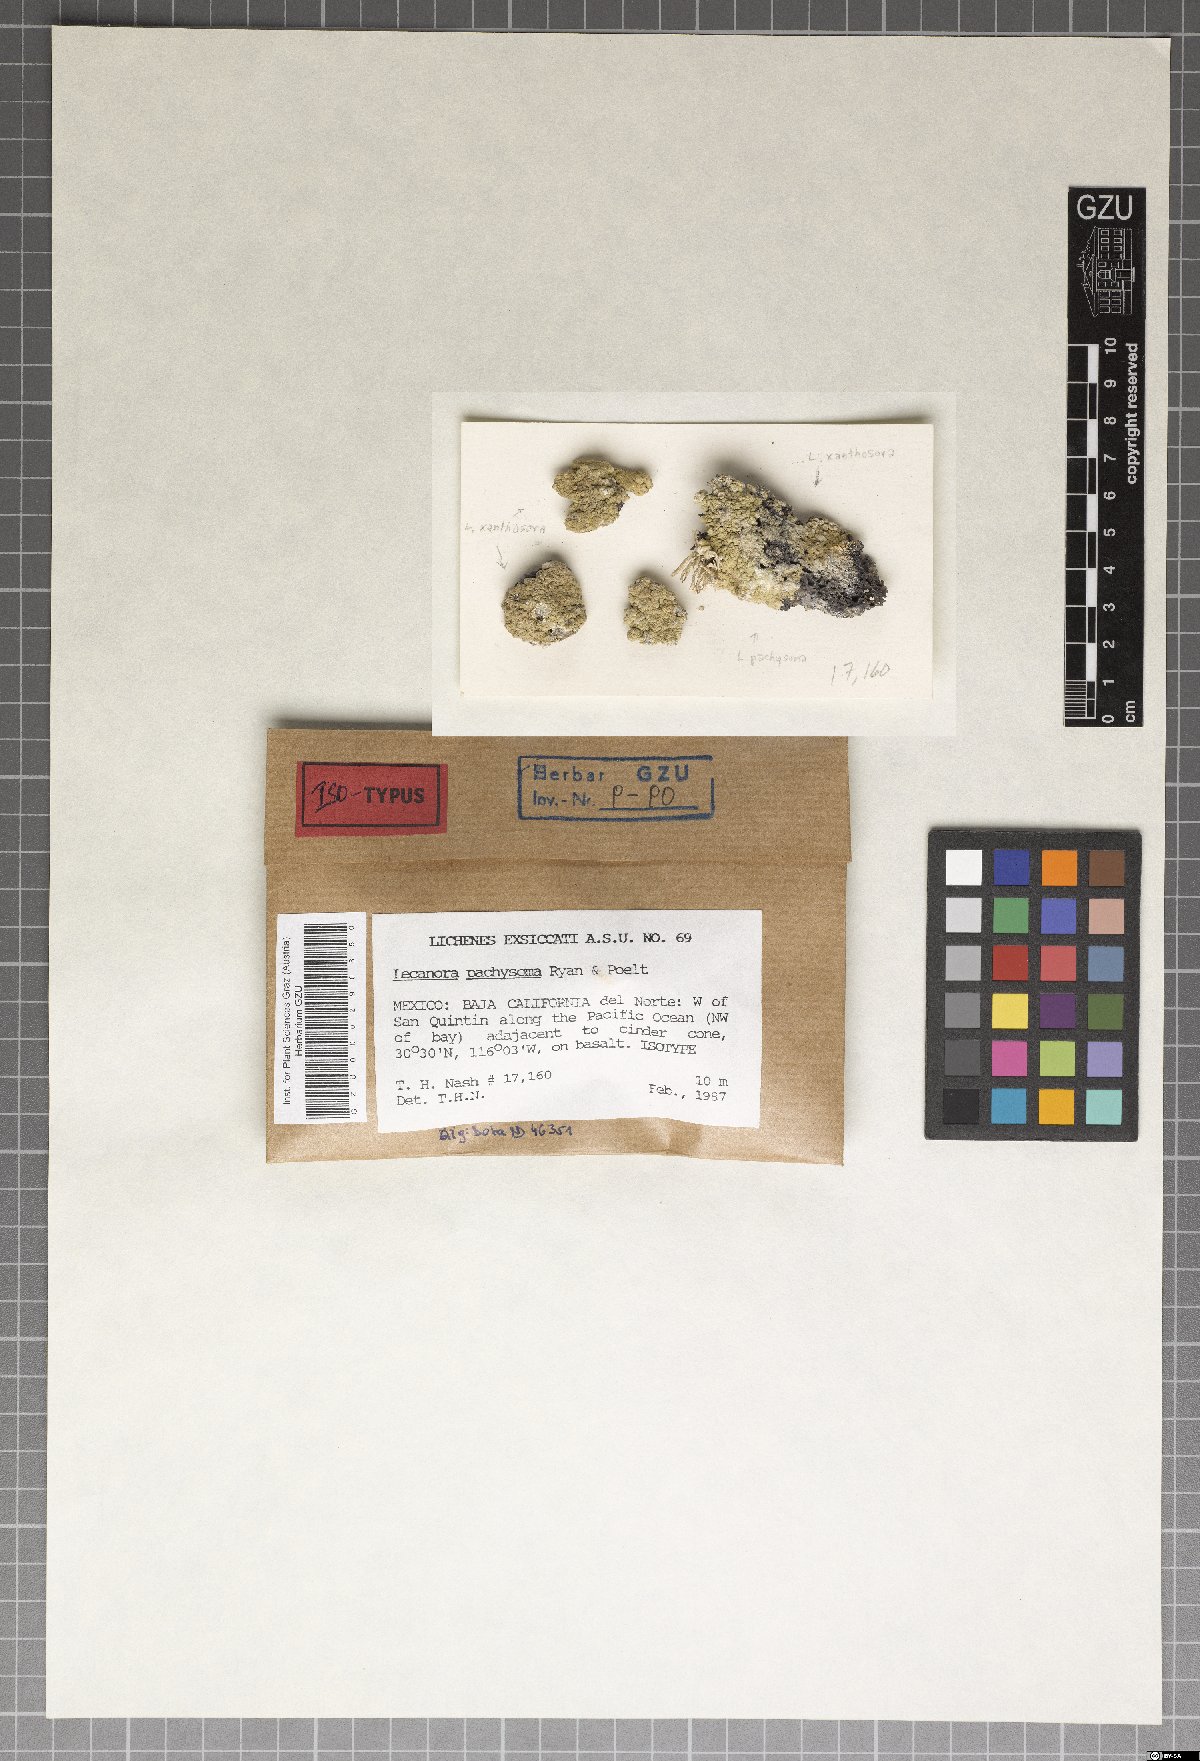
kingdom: Fungi
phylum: Ascomycota
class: Lecanoromycetes
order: Lecanorales
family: Lecanoraceae
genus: Lecanora
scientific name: Lecanora pachysoma
